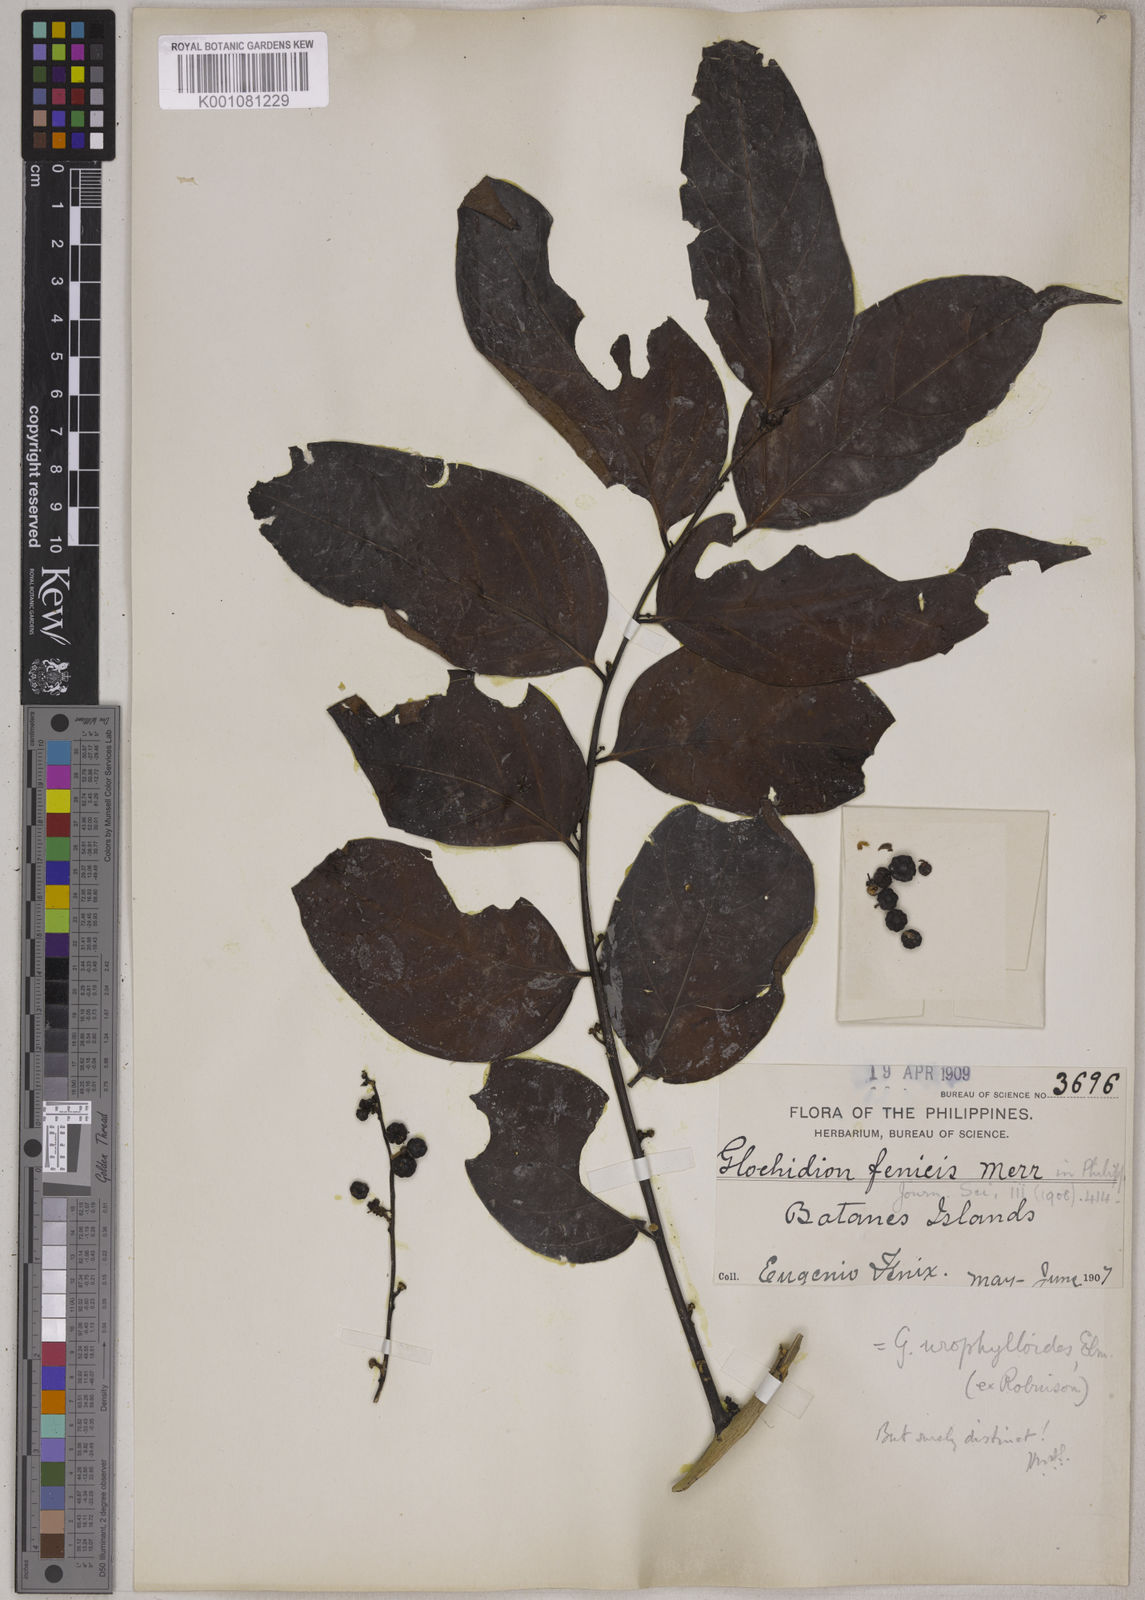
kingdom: Plantae
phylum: Tracheophyta
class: Magnoliopsida
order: Malpighiales
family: Phyllanthaceae
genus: Glochidion
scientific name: Glochidion urophylloides
